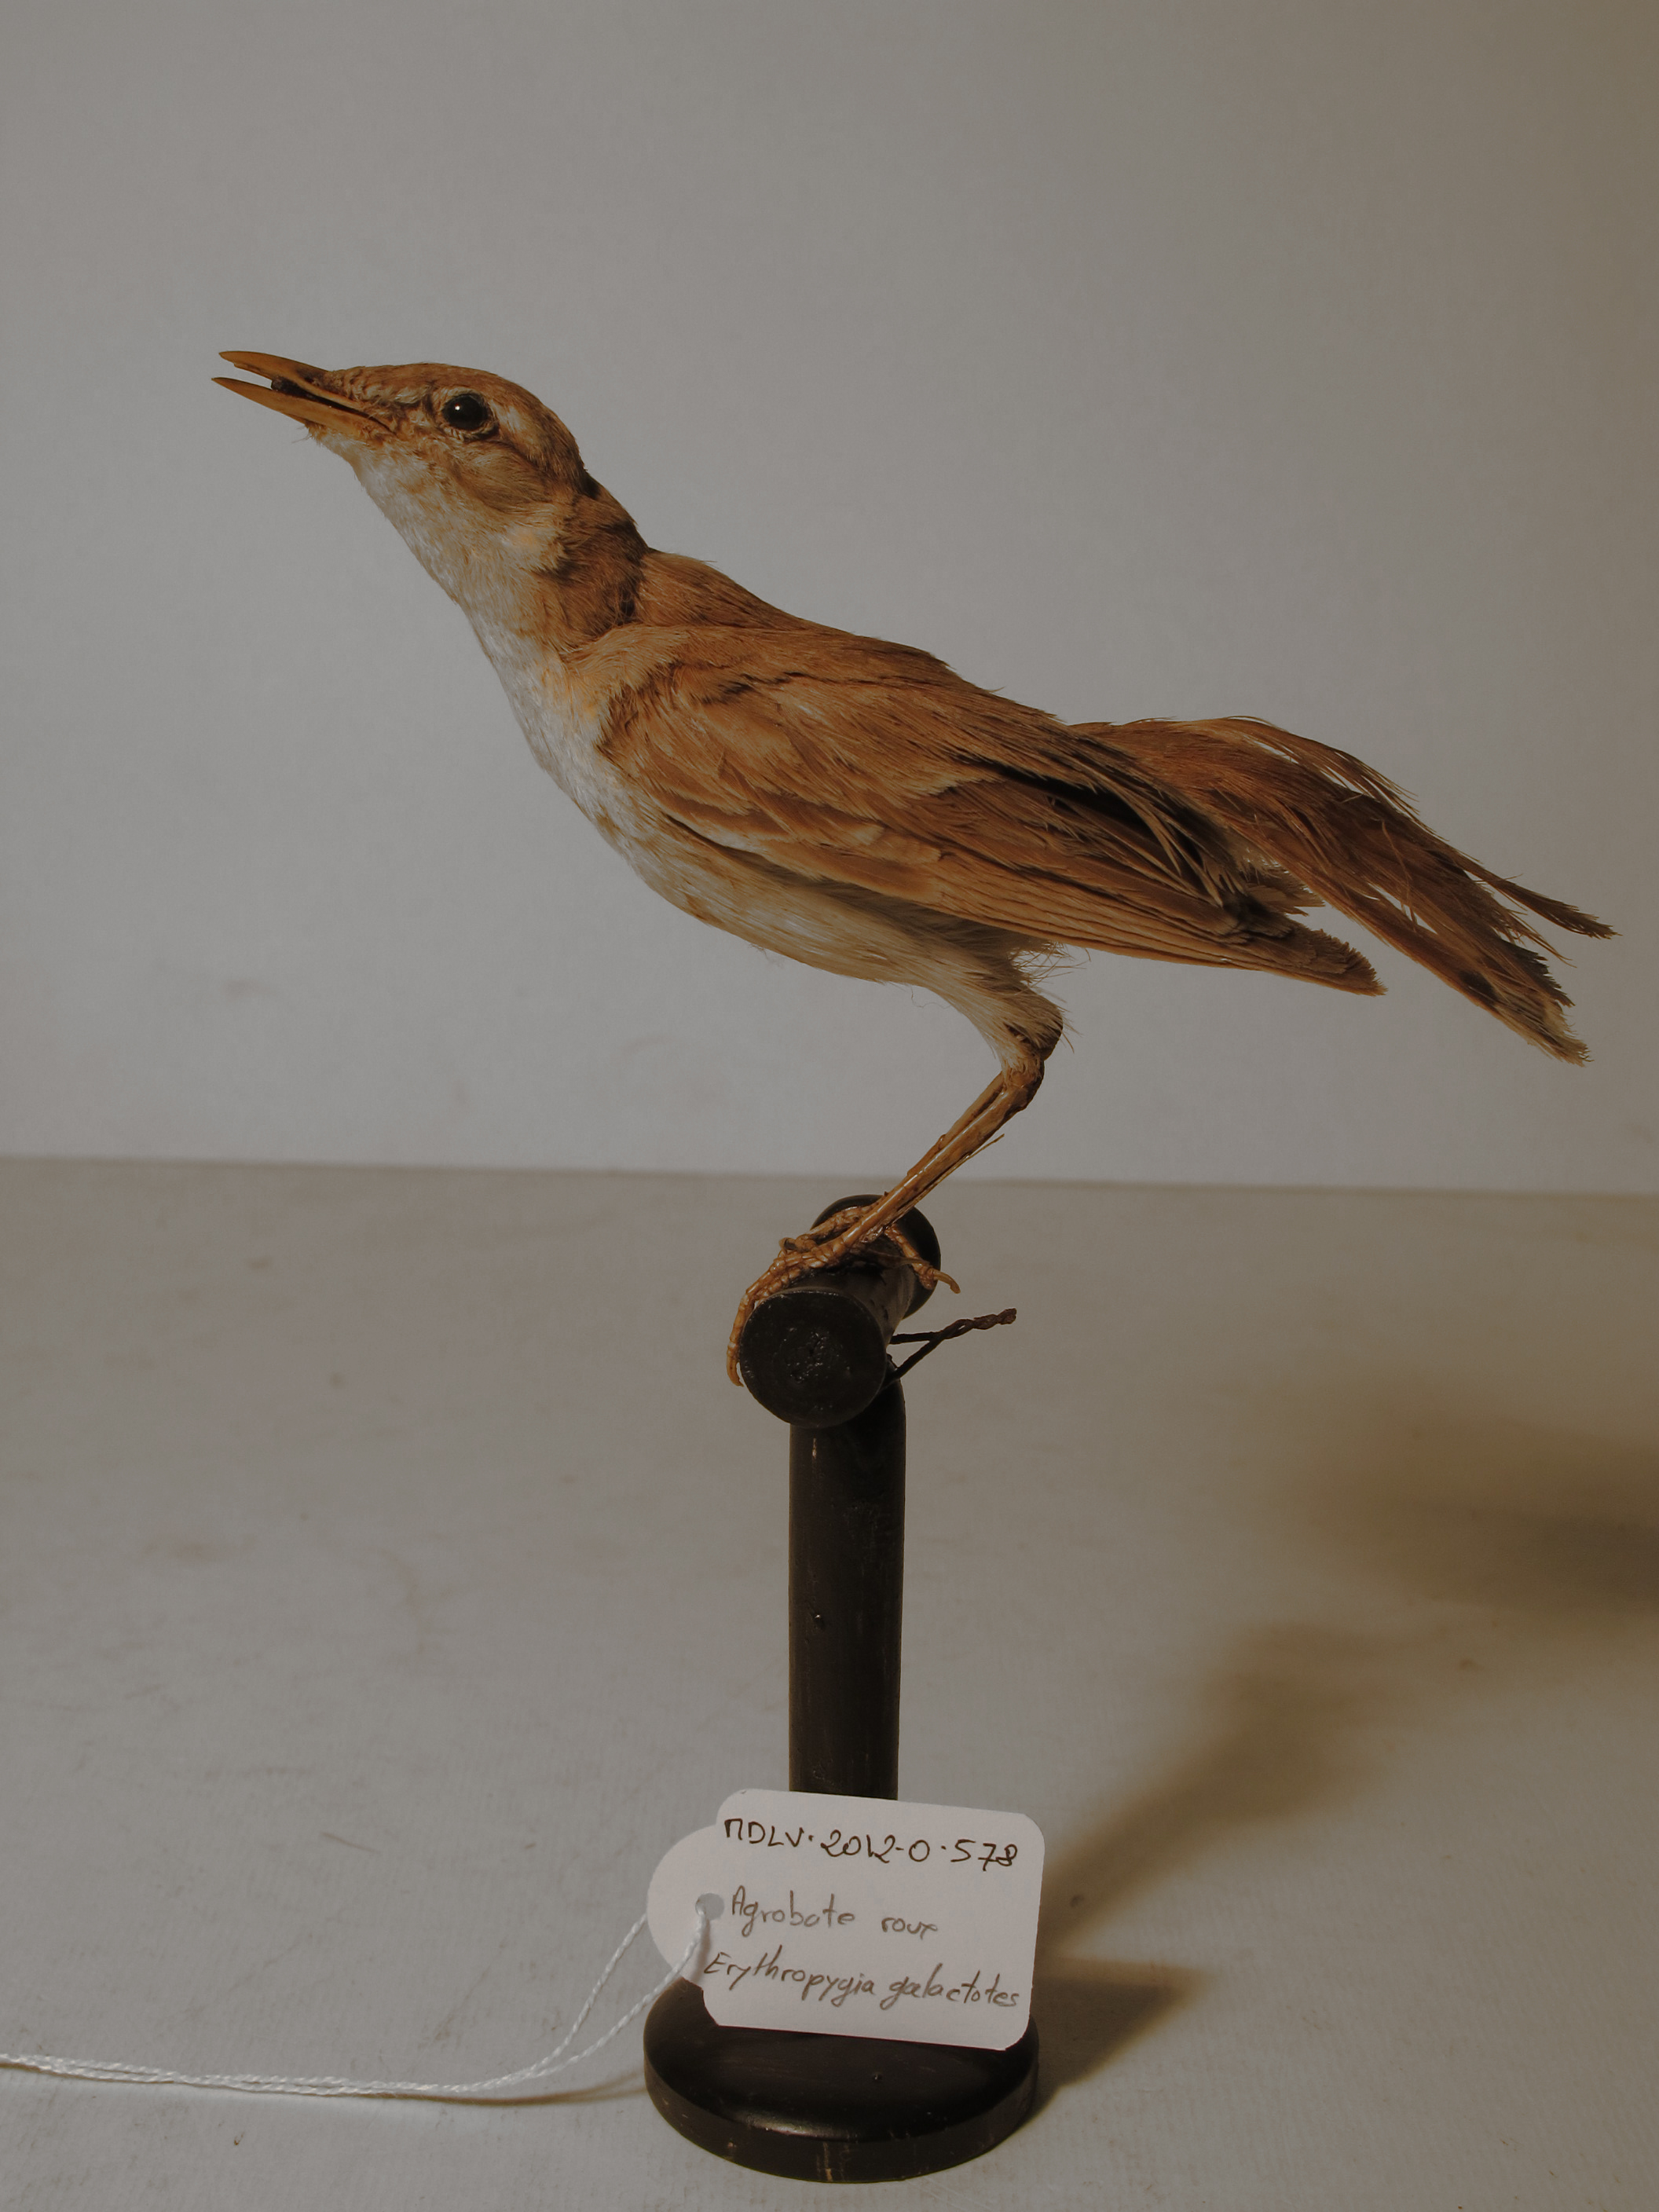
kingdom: Animalia
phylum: Chordata
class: Aves
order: Passeriformes
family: Muscicapidae
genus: Erythropygia
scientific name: Erythropygia galactotes
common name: Rufous Scrub-robin
